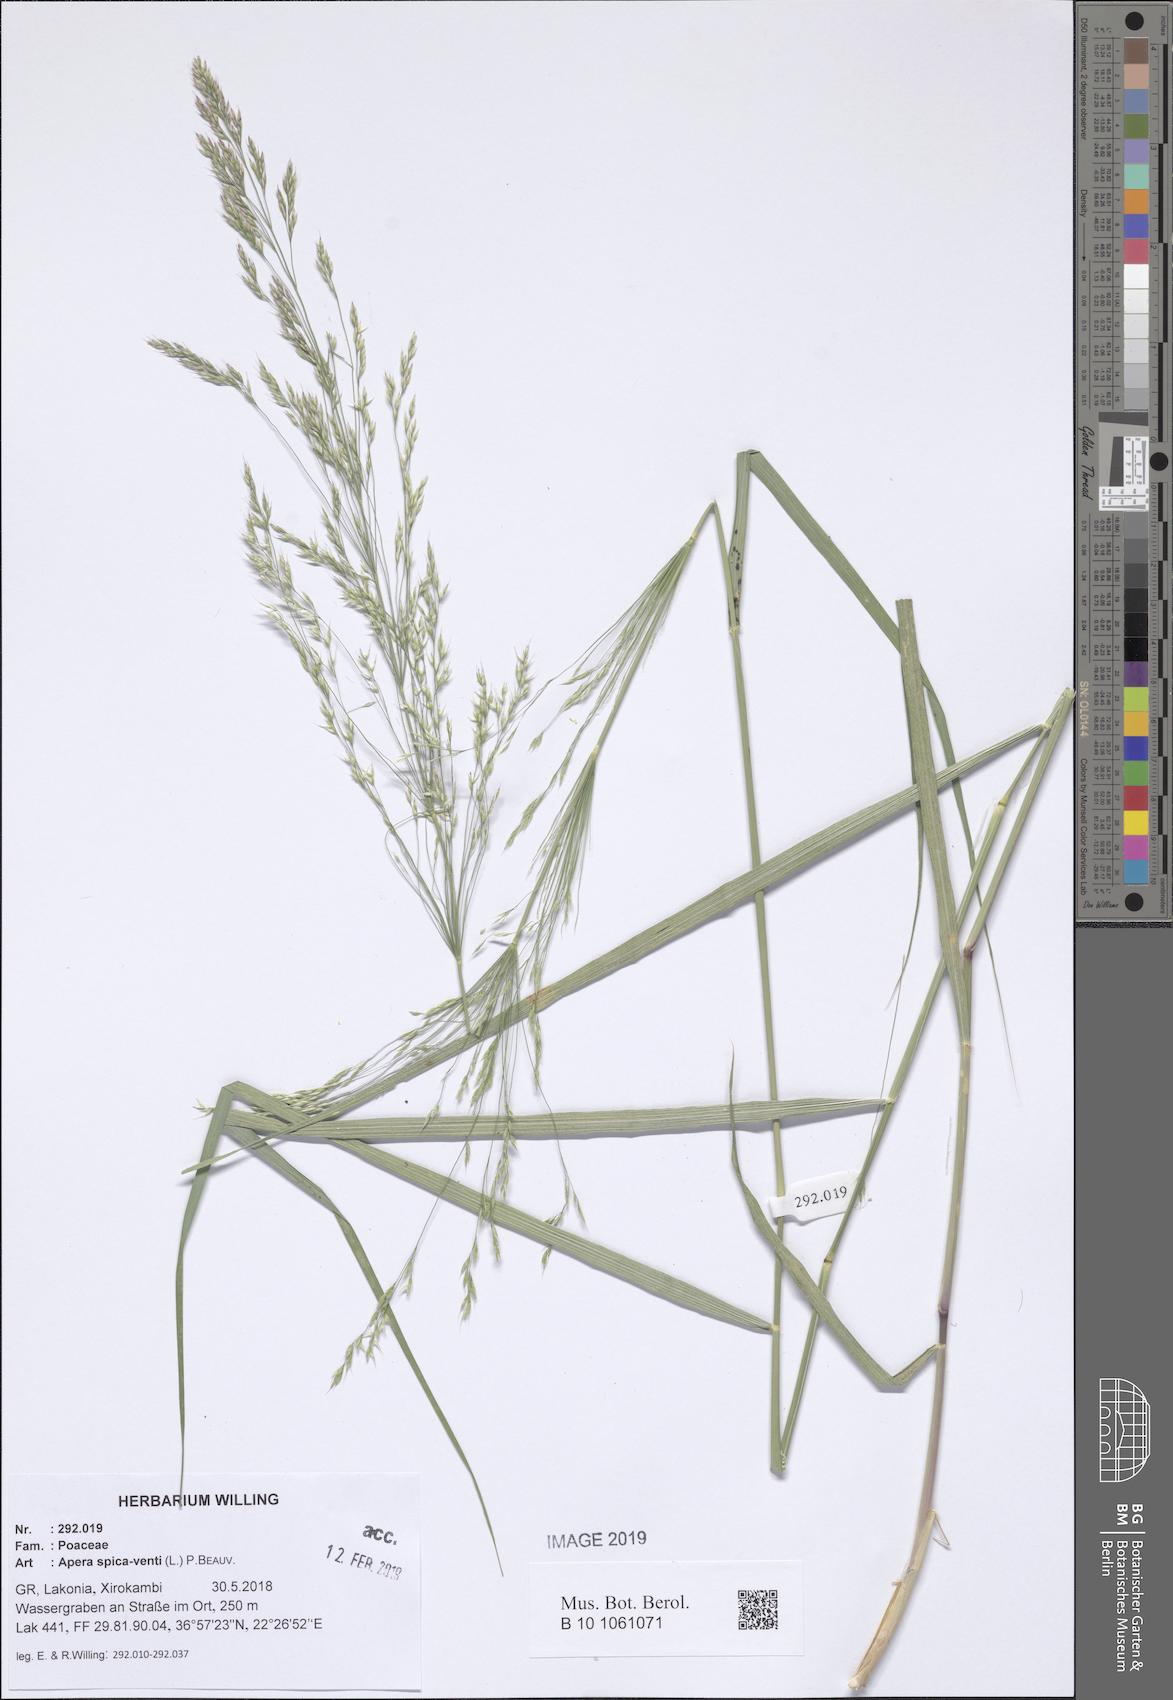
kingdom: Plantae
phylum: Tracheophyta
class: Liliopsida
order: Poales
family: Poaceae
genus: Apera
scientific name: Apera spica-venti
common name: Loose silky-bent
